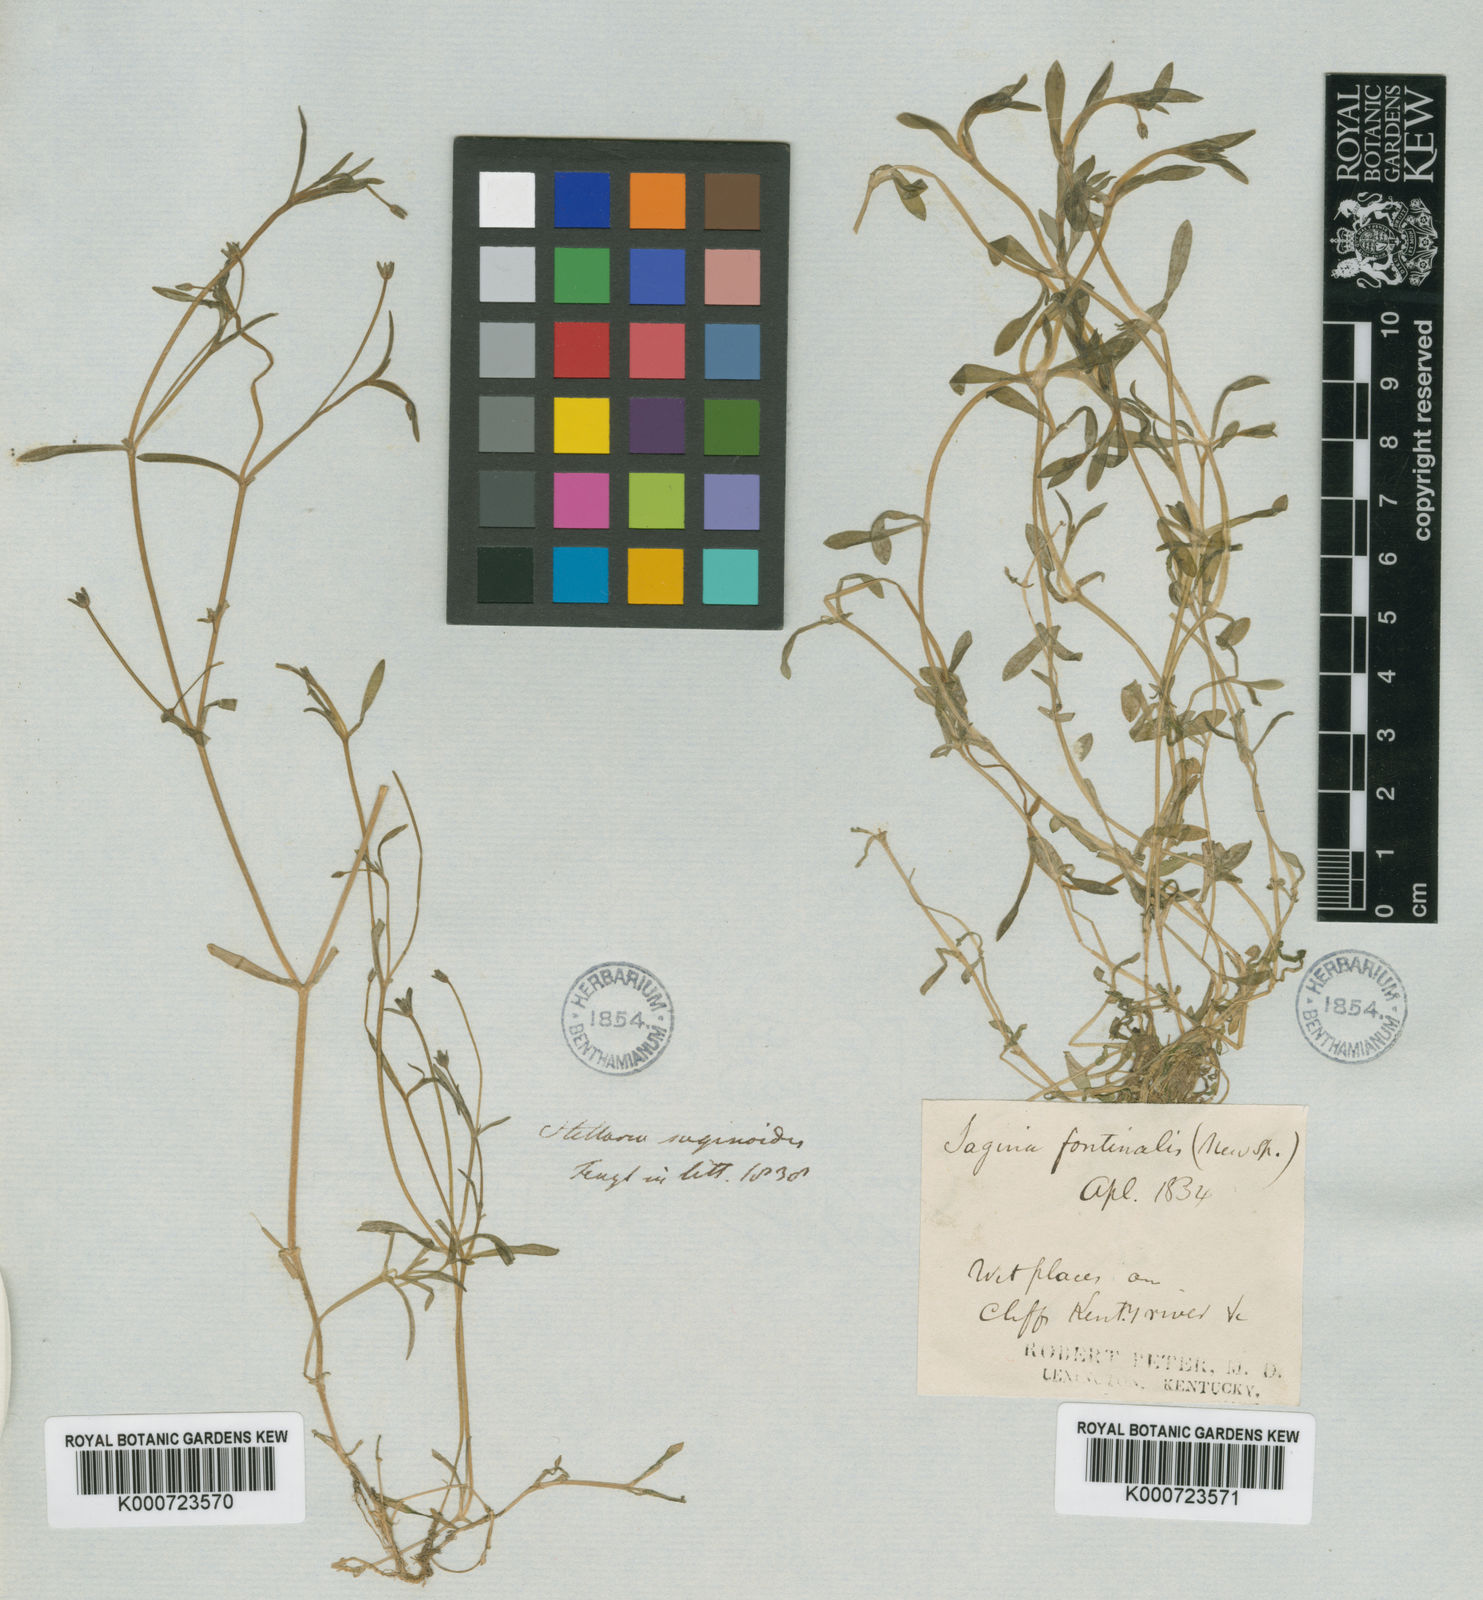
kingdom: Plantae
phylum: Tracheophyta
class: Magnoliopsida
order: Caryophyllales
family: Caryophyllaceae
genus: Sabulina
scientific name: Sabulina fontinalis
